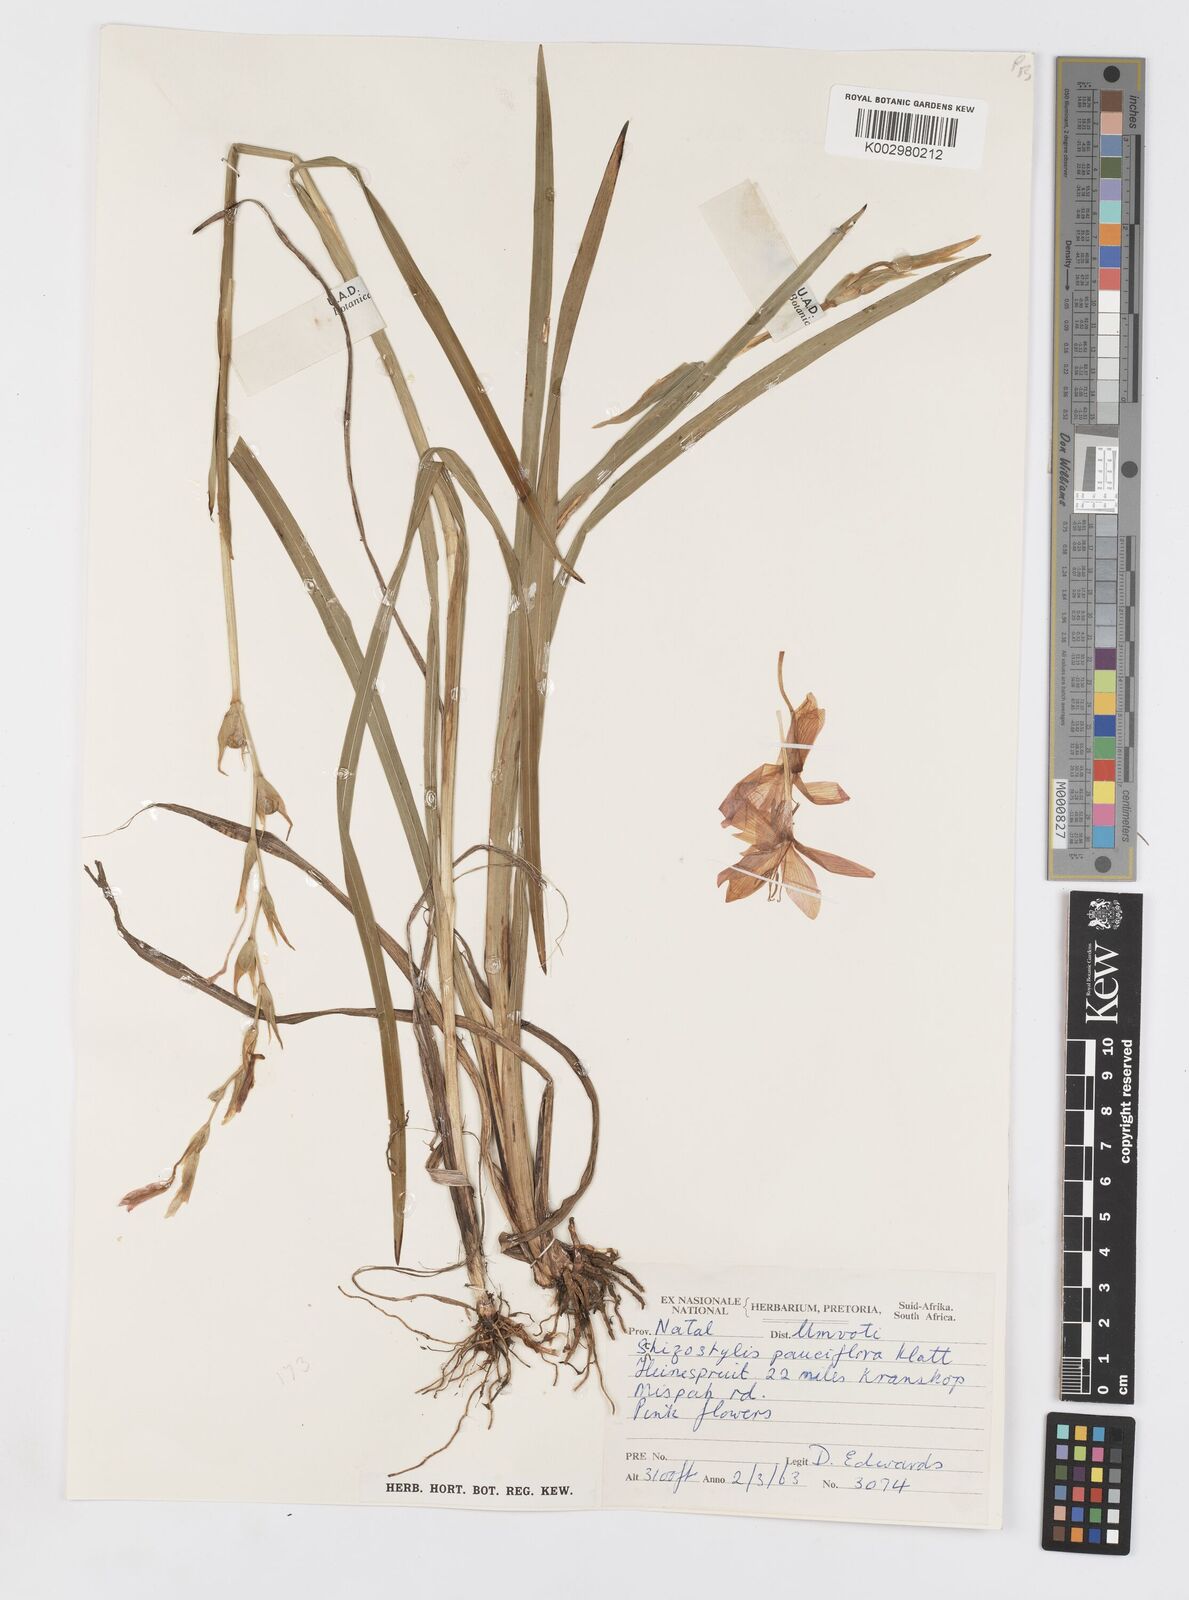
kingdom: Plantae
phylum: Tracheophyta
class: Liliopsida
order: Asparagales
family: Iridaceae
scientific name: Iridaceae
